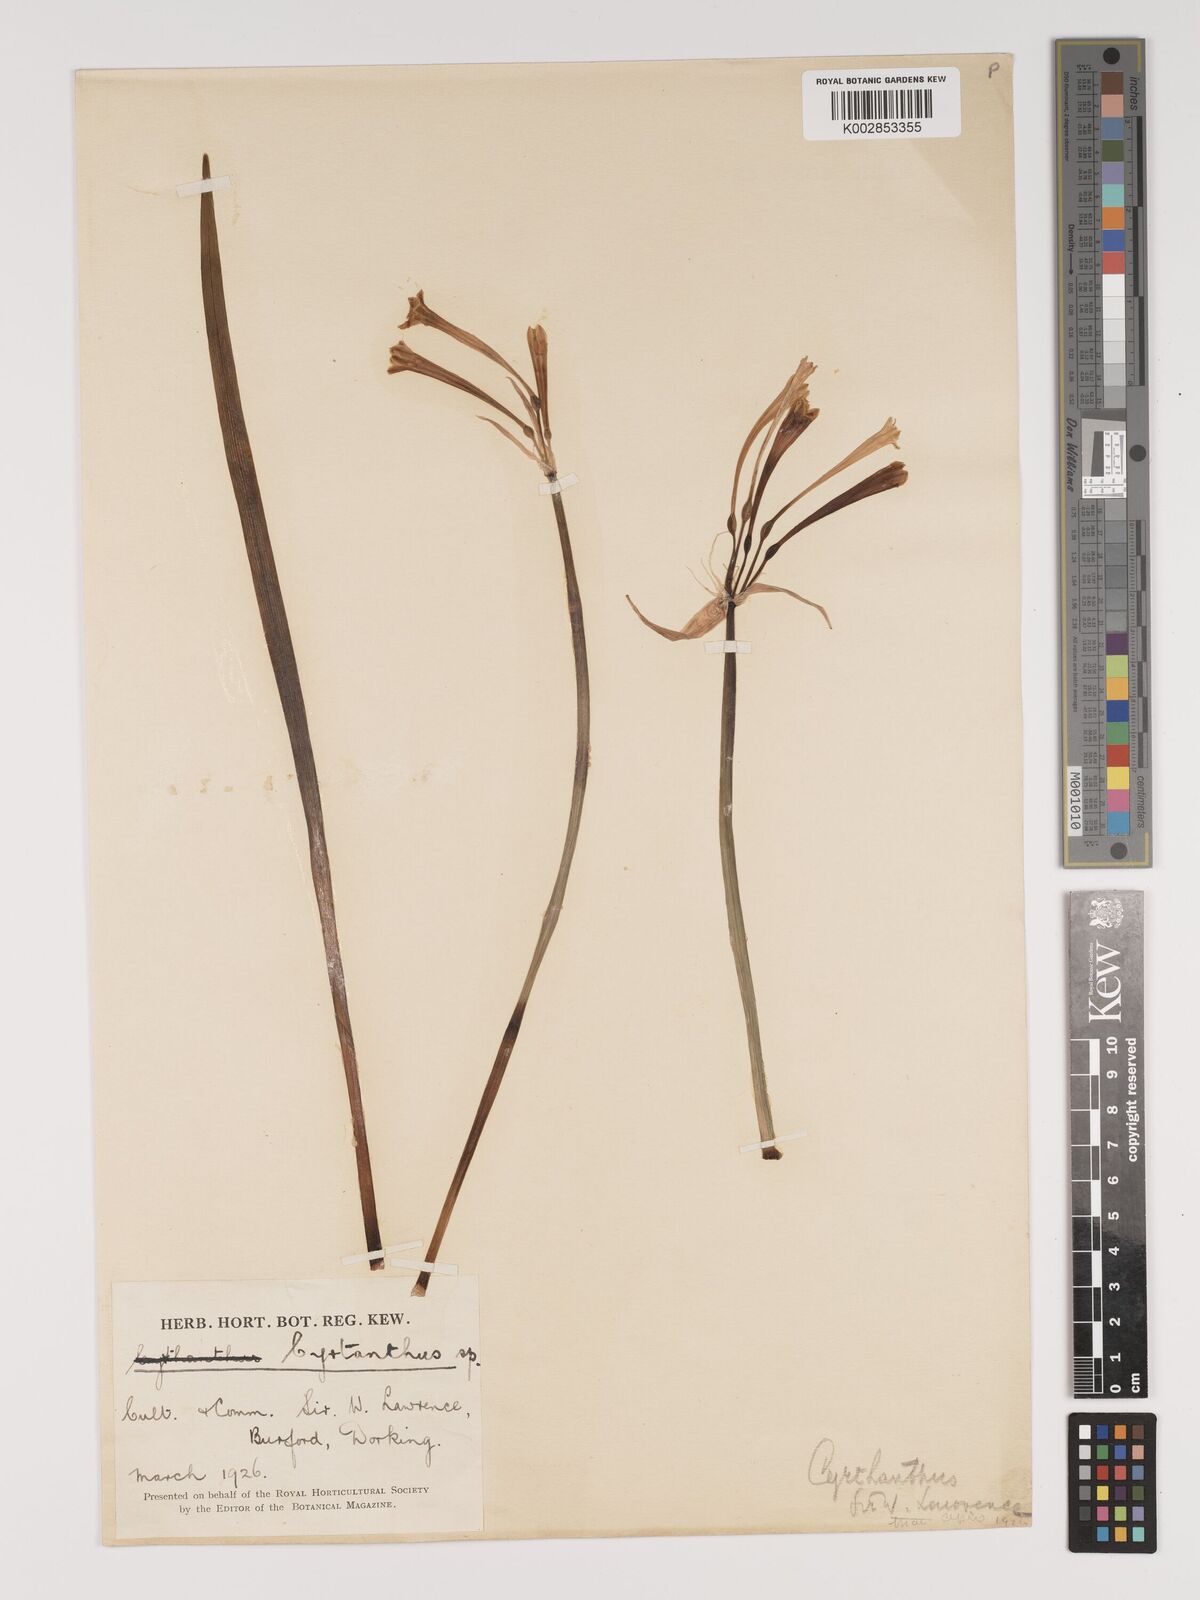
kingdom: Plantae
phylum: Tracheophyta
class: Liliopsida
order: Asparagales
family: Amaryllidaceae
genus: Cyrtanthus
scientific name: Cyrtanthus mackenii
